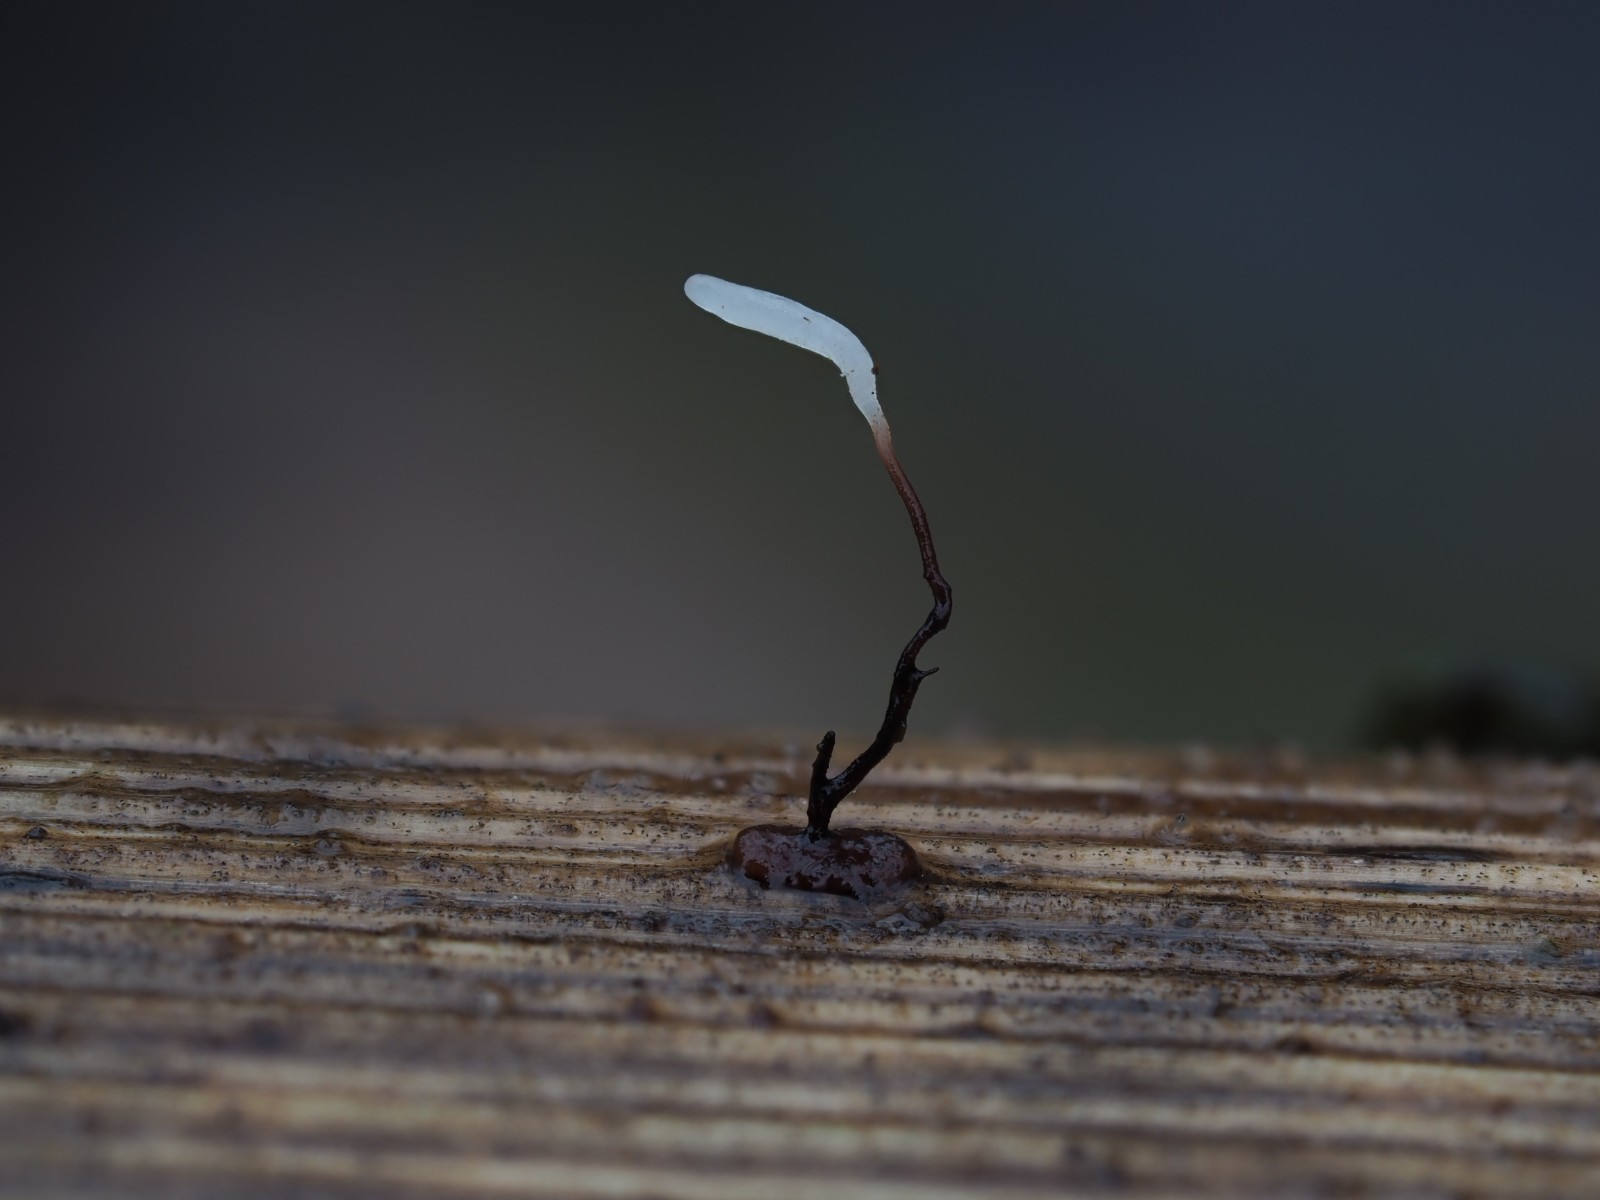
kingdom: Fungi
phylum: Basidiomycota
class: Agaricomycetes
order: Agaricales
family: Typhulaceae
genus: Typhula
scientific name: Typhula erythropus
